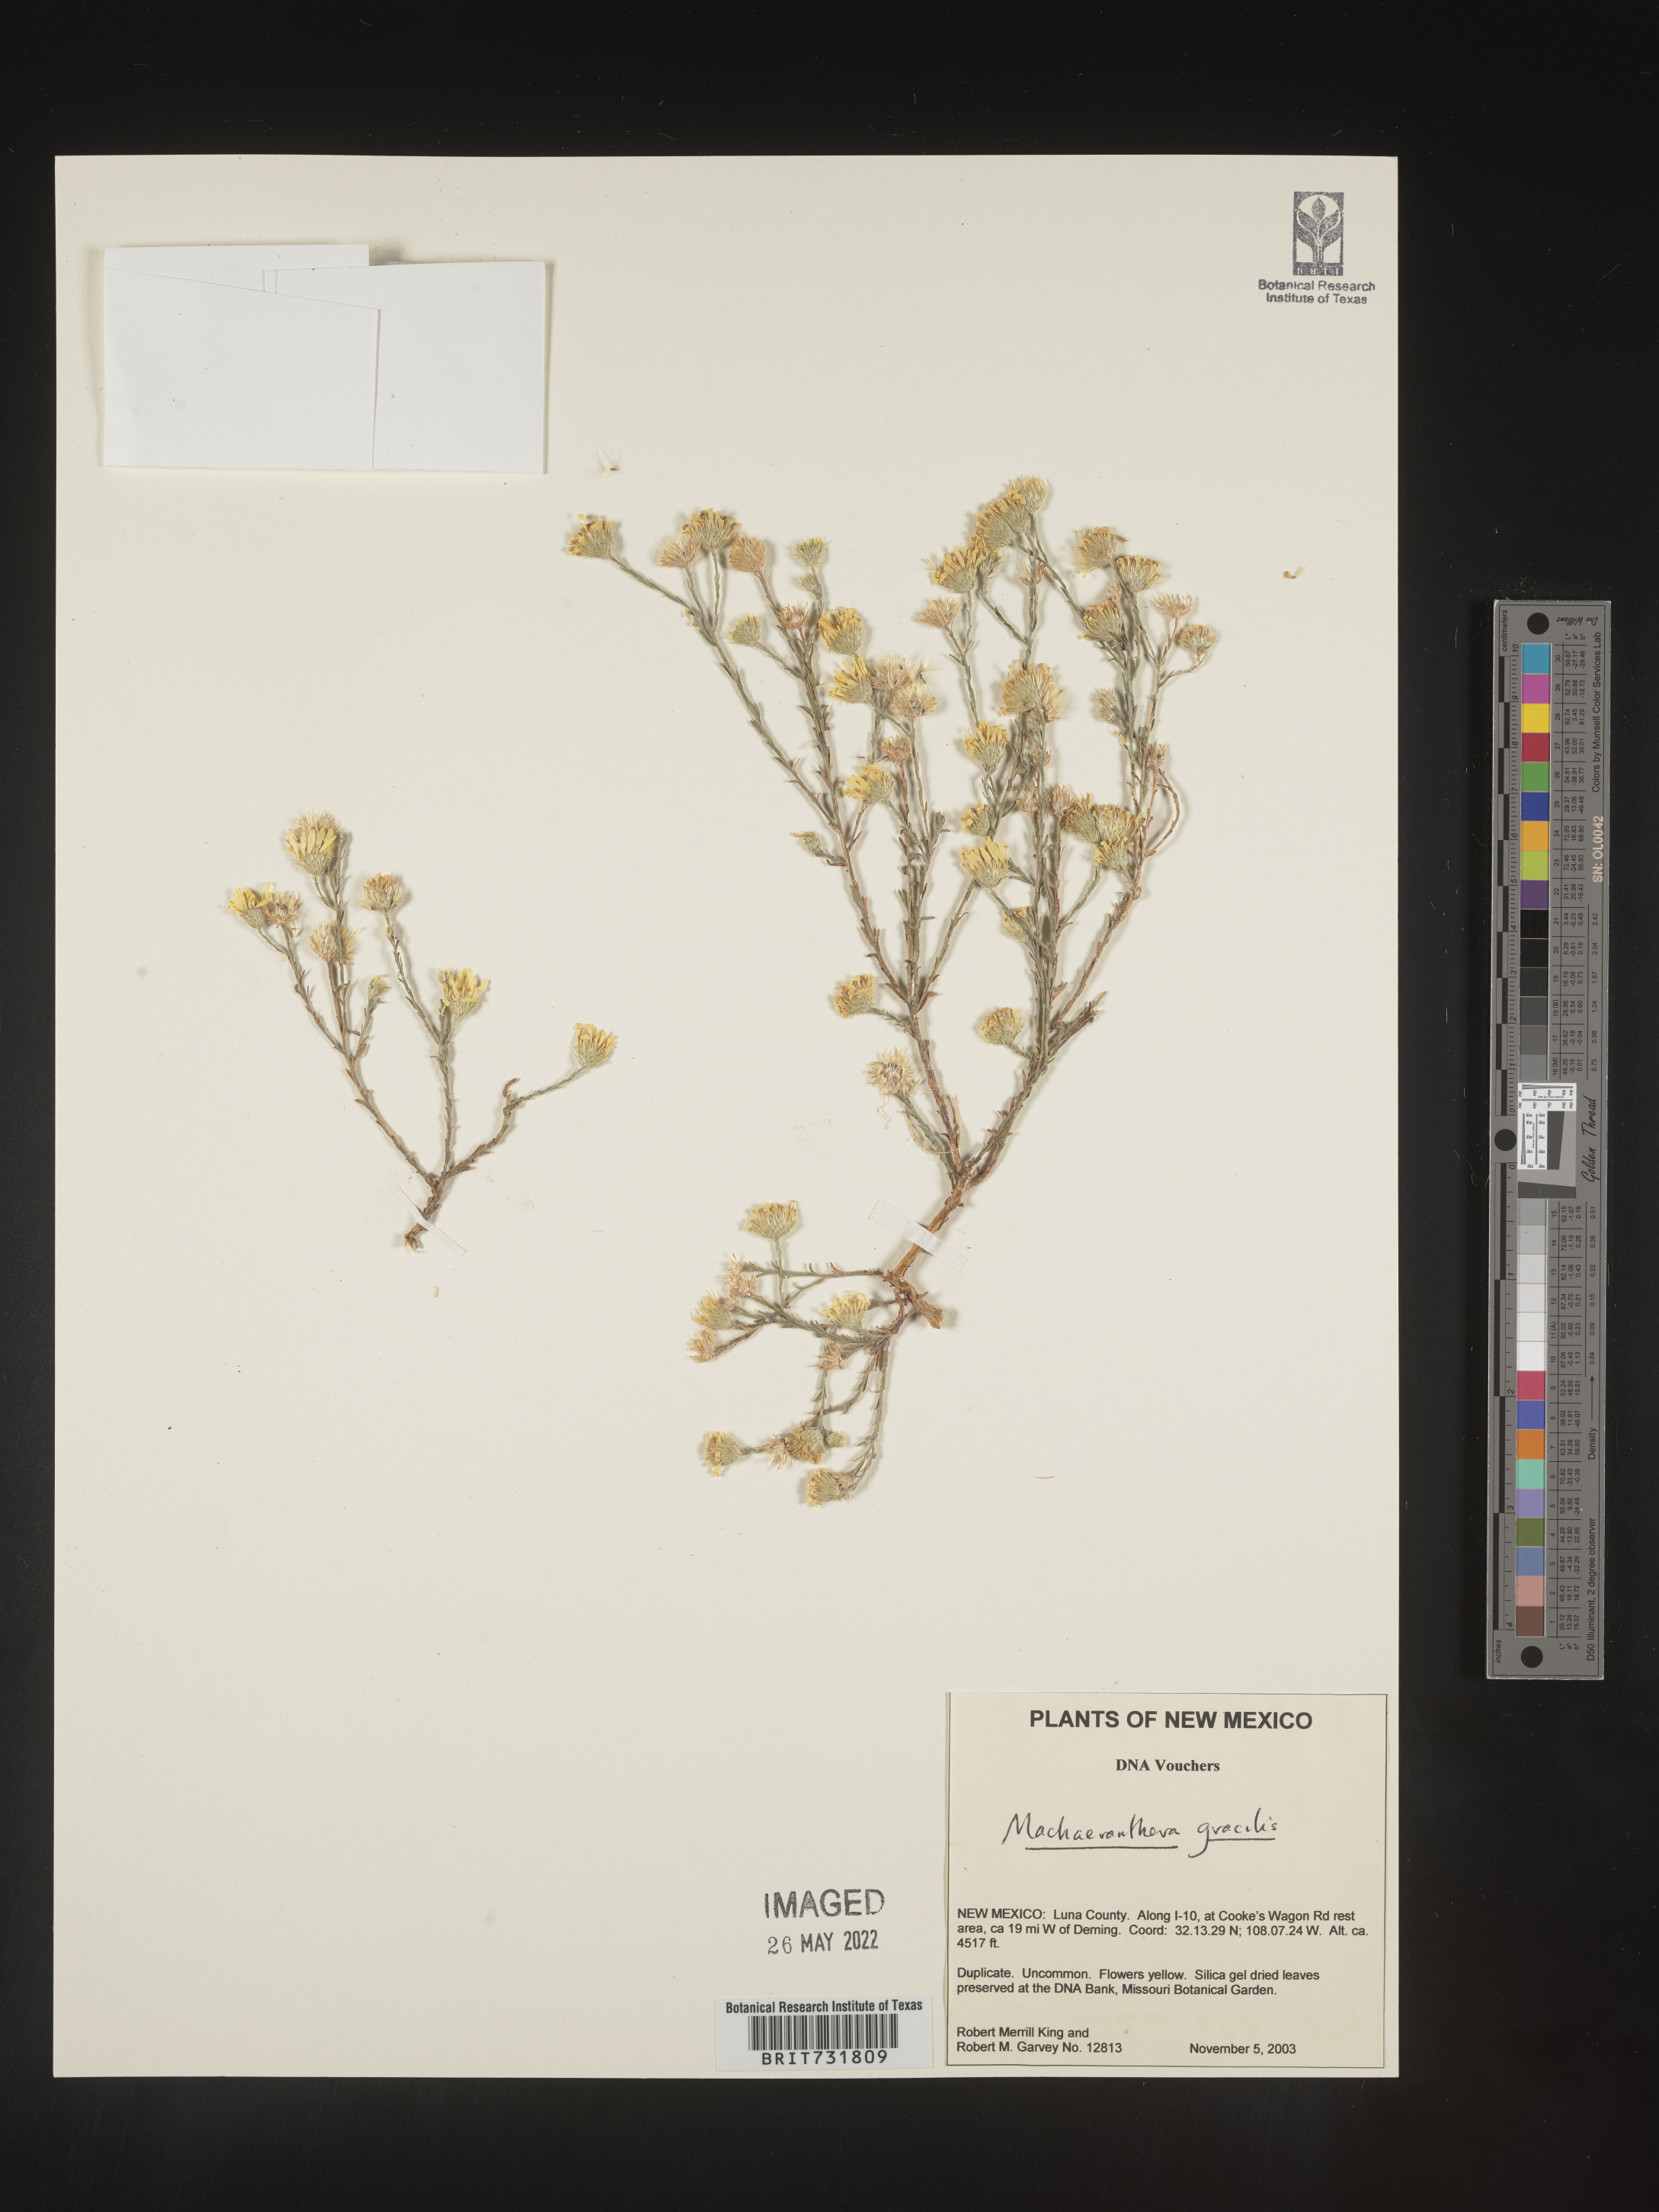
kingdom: Plantae
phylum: Tracheophyta
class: Magnoliopsida
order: Asterales
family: Asteraceae
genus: Machaeranthera
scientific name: Machaeranthera
